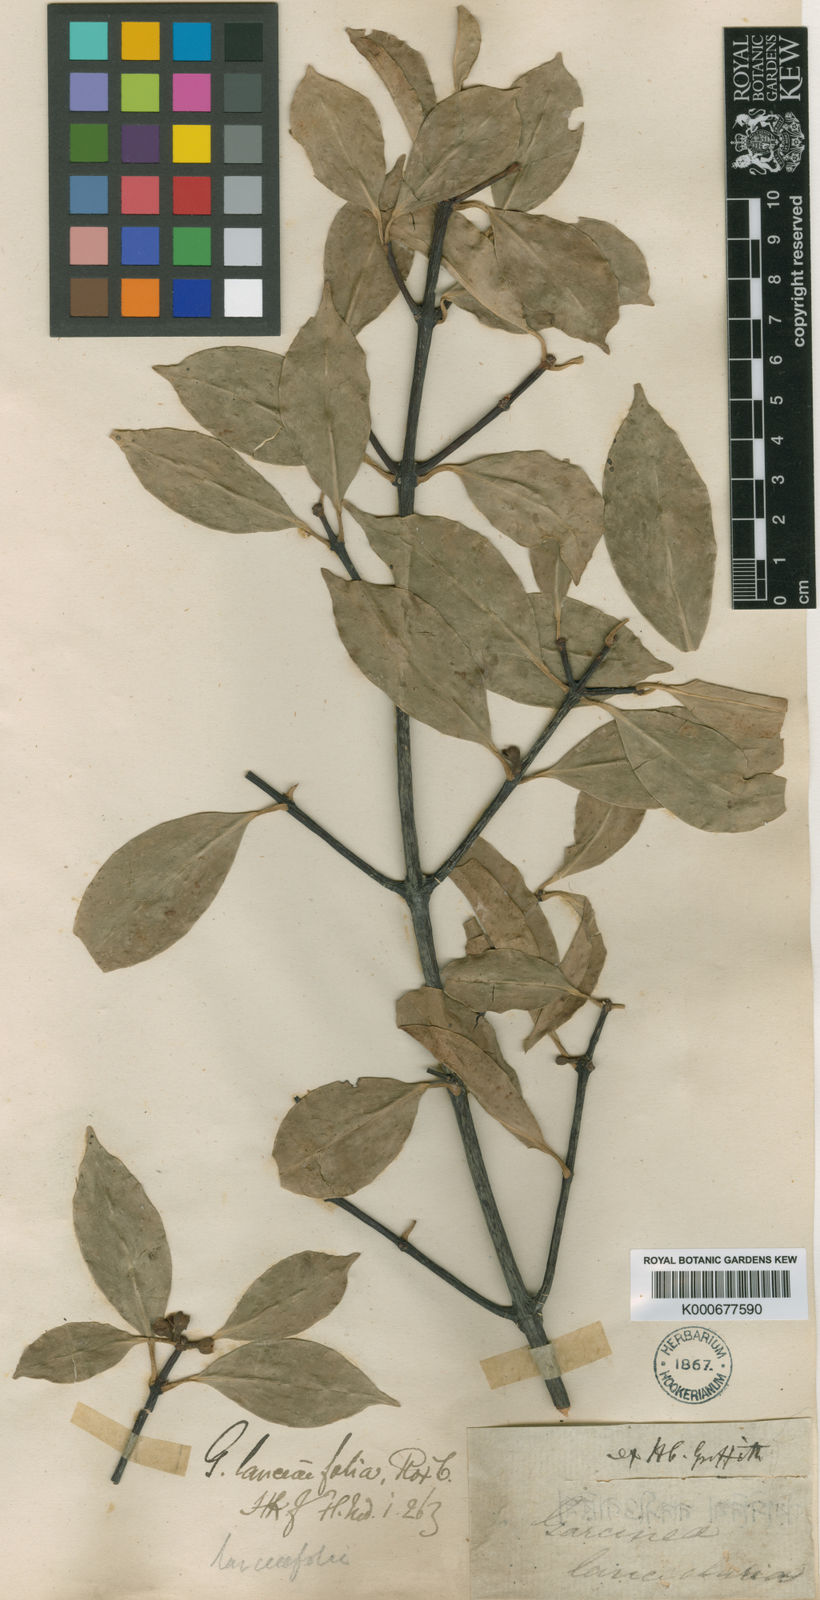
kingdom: Plantae
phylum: Tracheophyta
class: Magnoliopsida
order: Malpighiales
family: Clusiaceae
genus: Garcinia
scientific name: Garcinia lanceifolia
